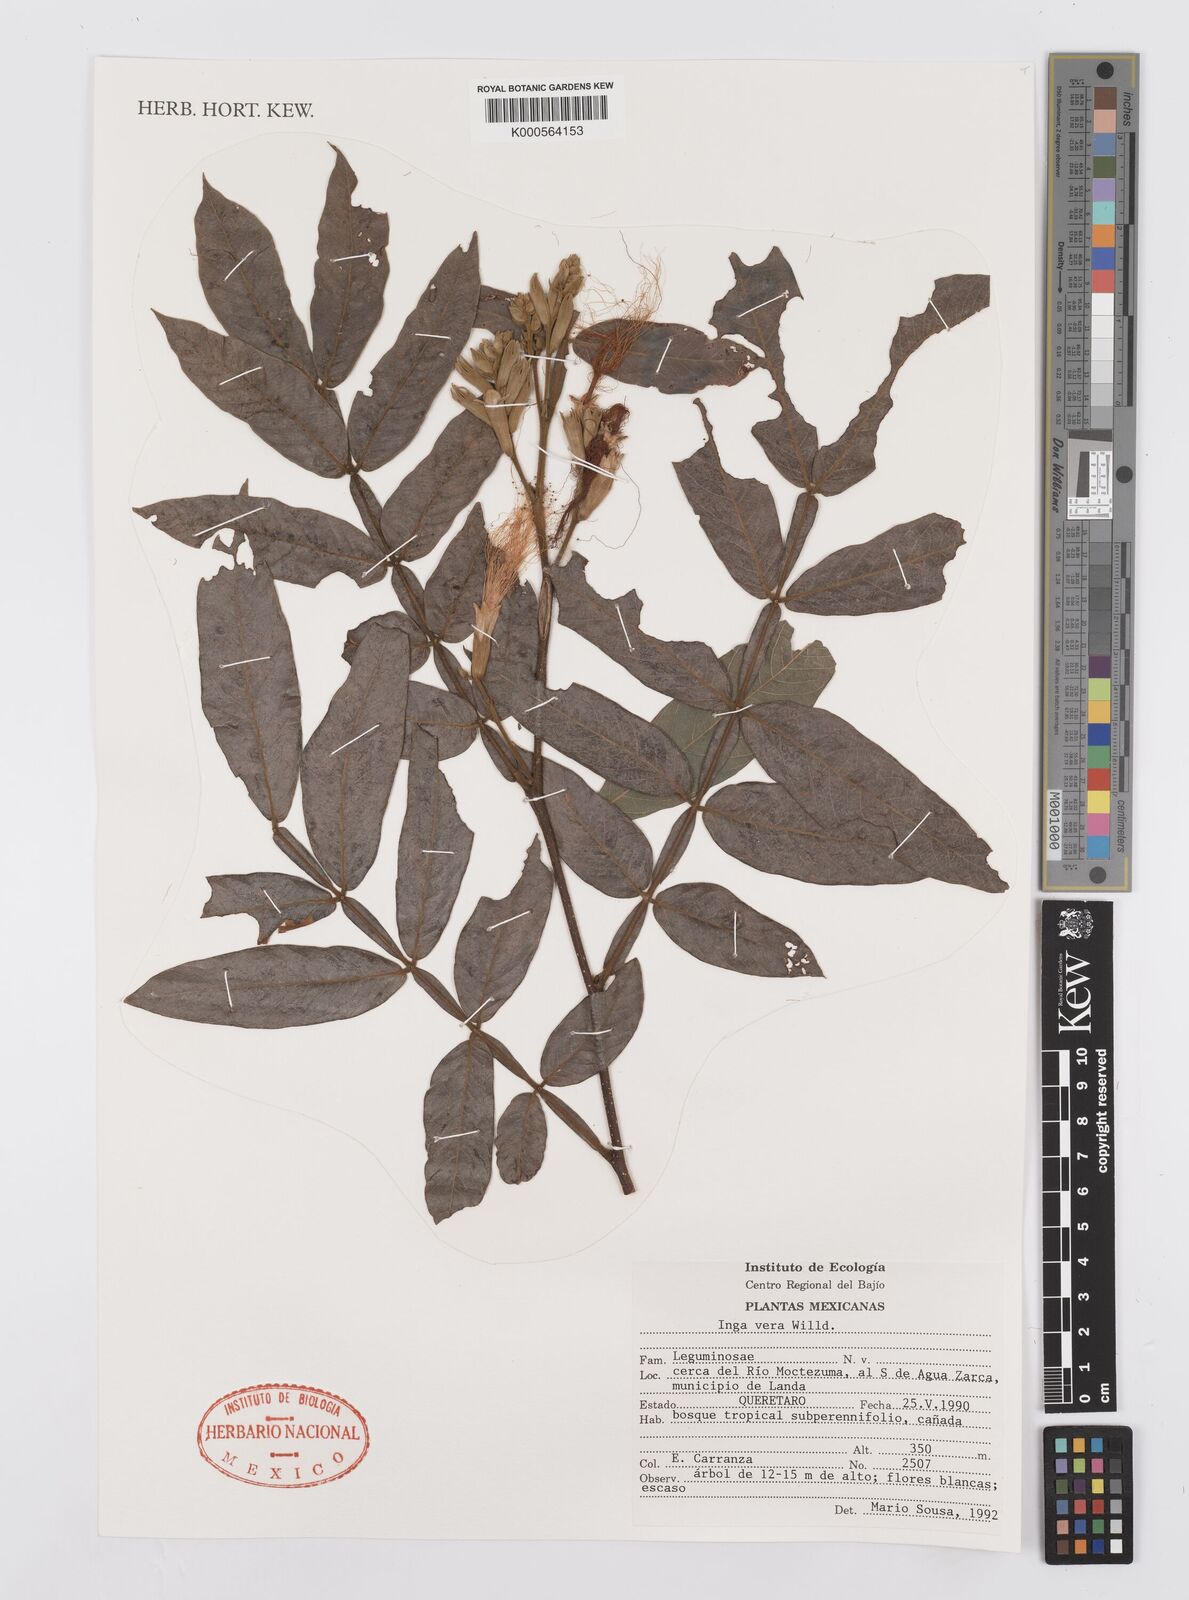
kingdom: Plantae
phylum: Tracheophyta
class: Magnoliopsida
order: Fabales
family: Fabaceae
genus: Inga
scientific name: Inga vera
